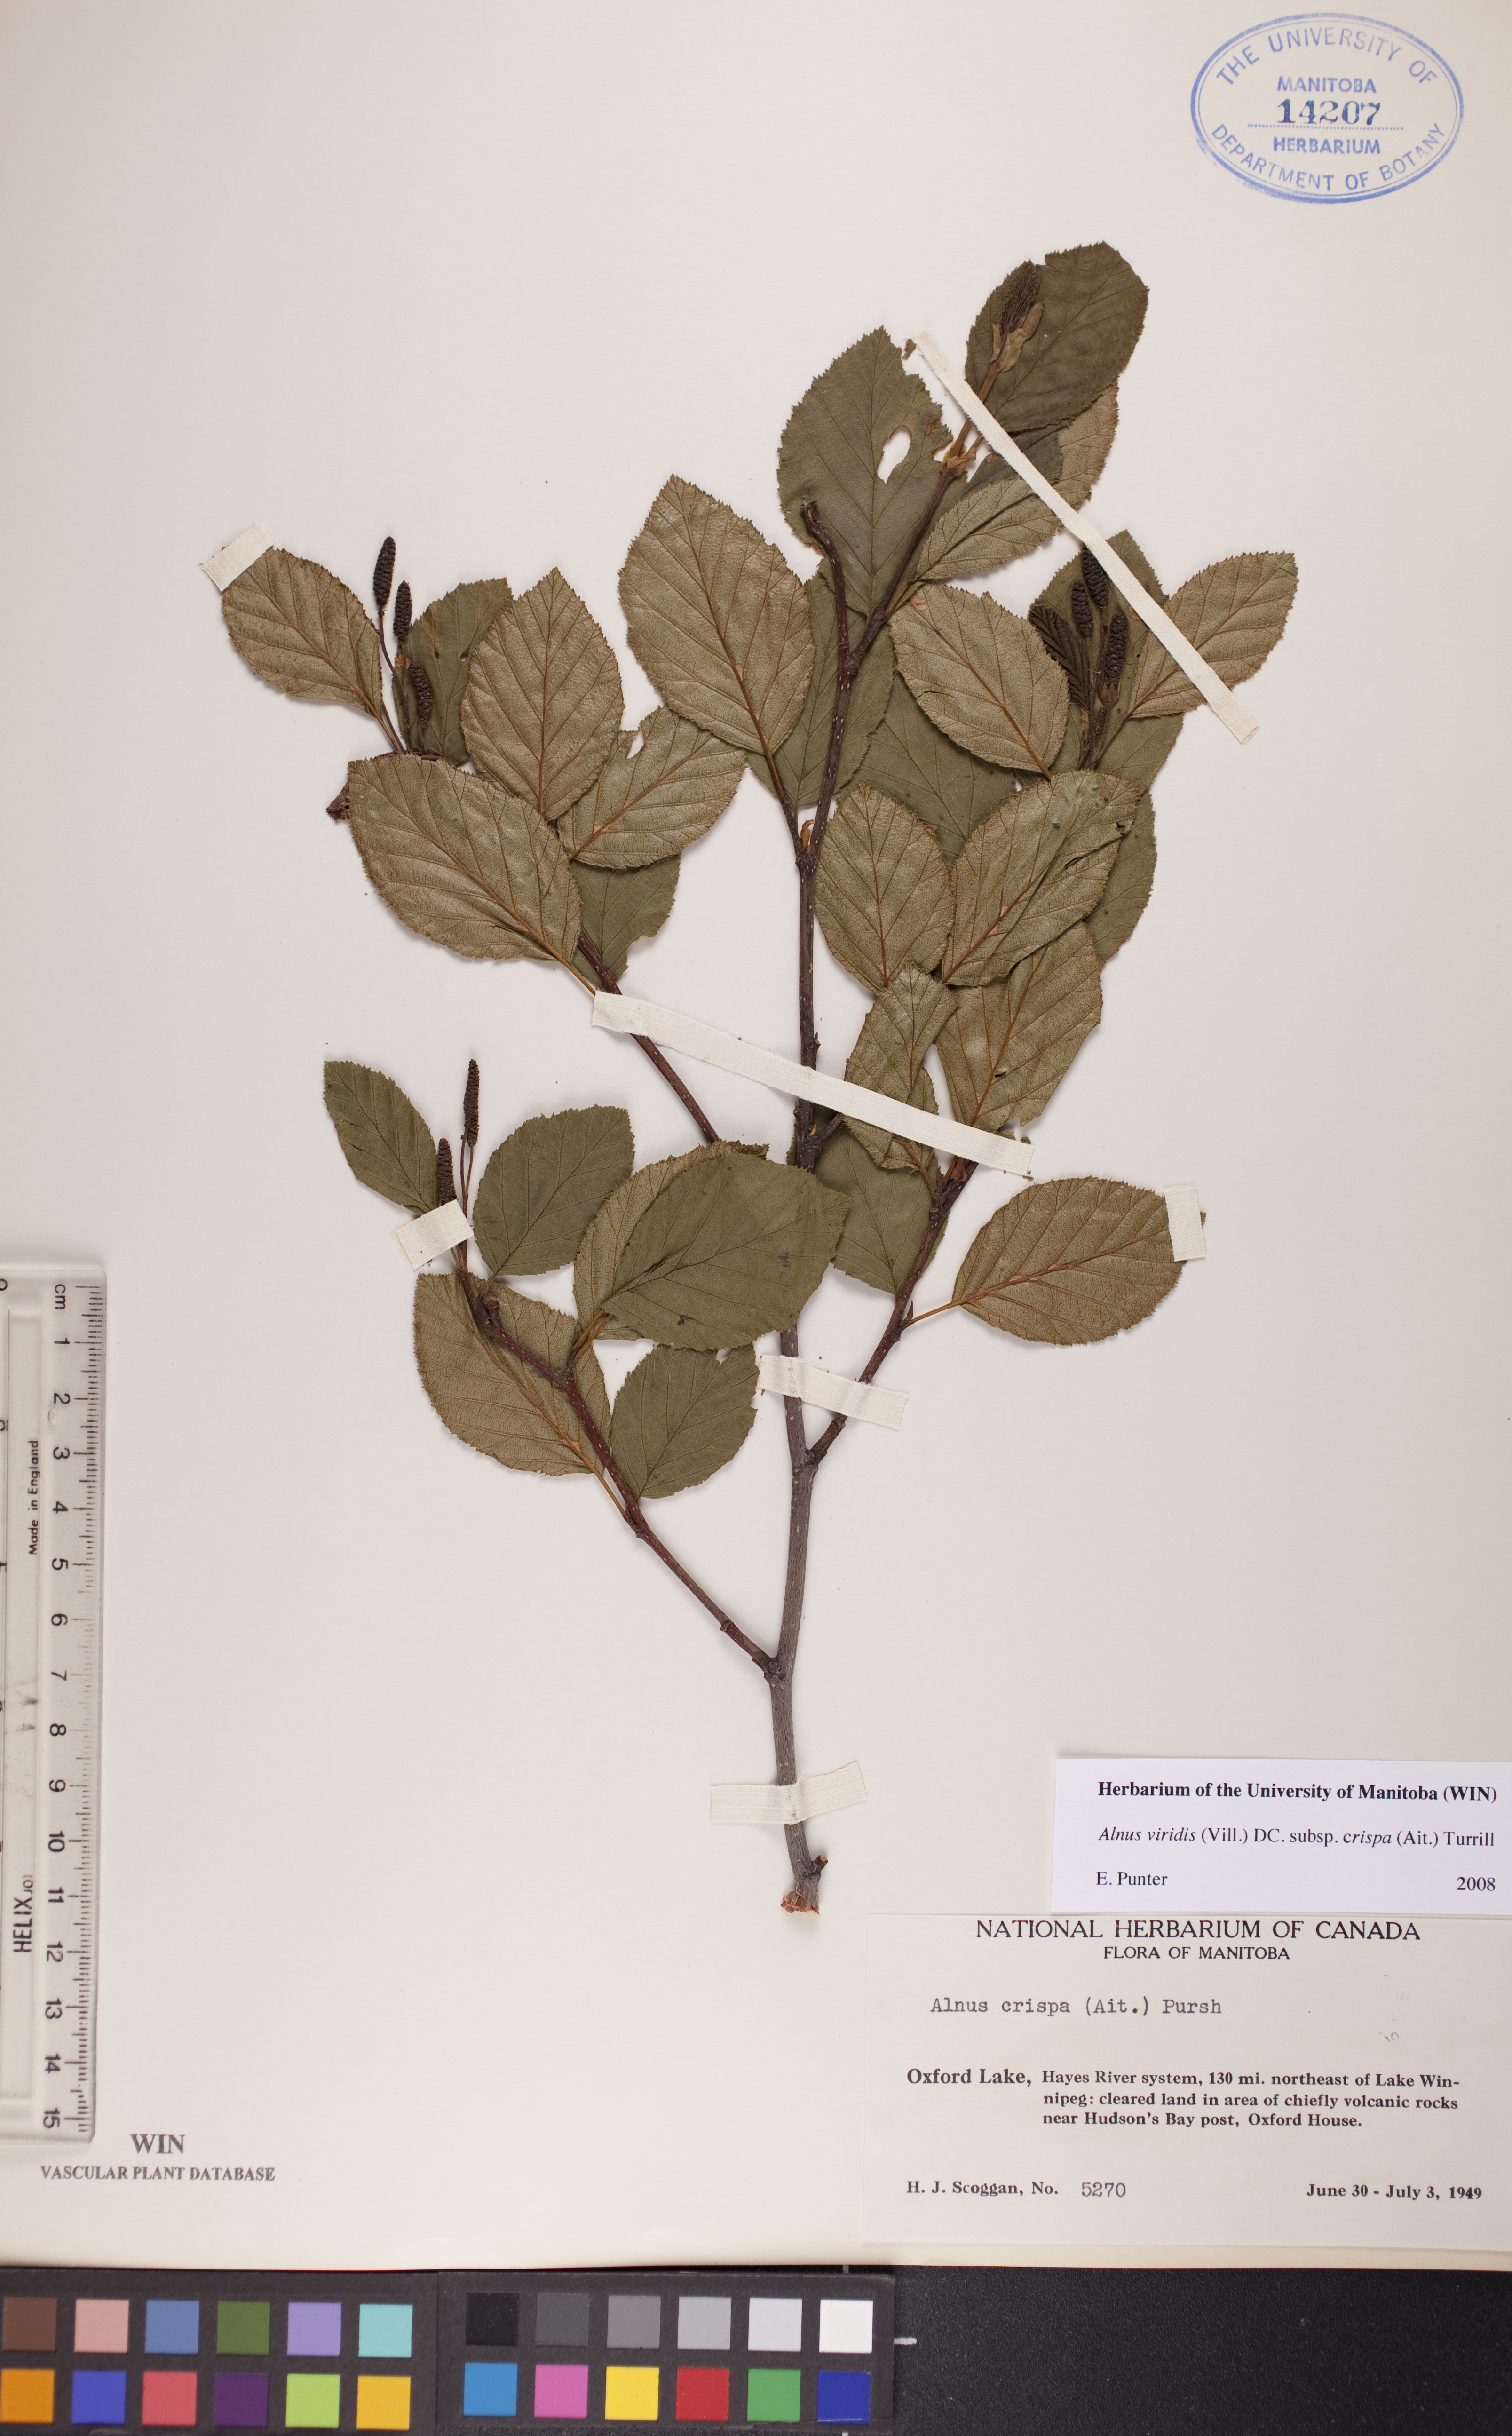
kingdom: Plantae
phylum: Tracheophyta
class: Magnoliopsida
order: Fagales
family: Betulaceae
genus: Alnus
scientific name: Alnus alnobetula
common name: Green alder
